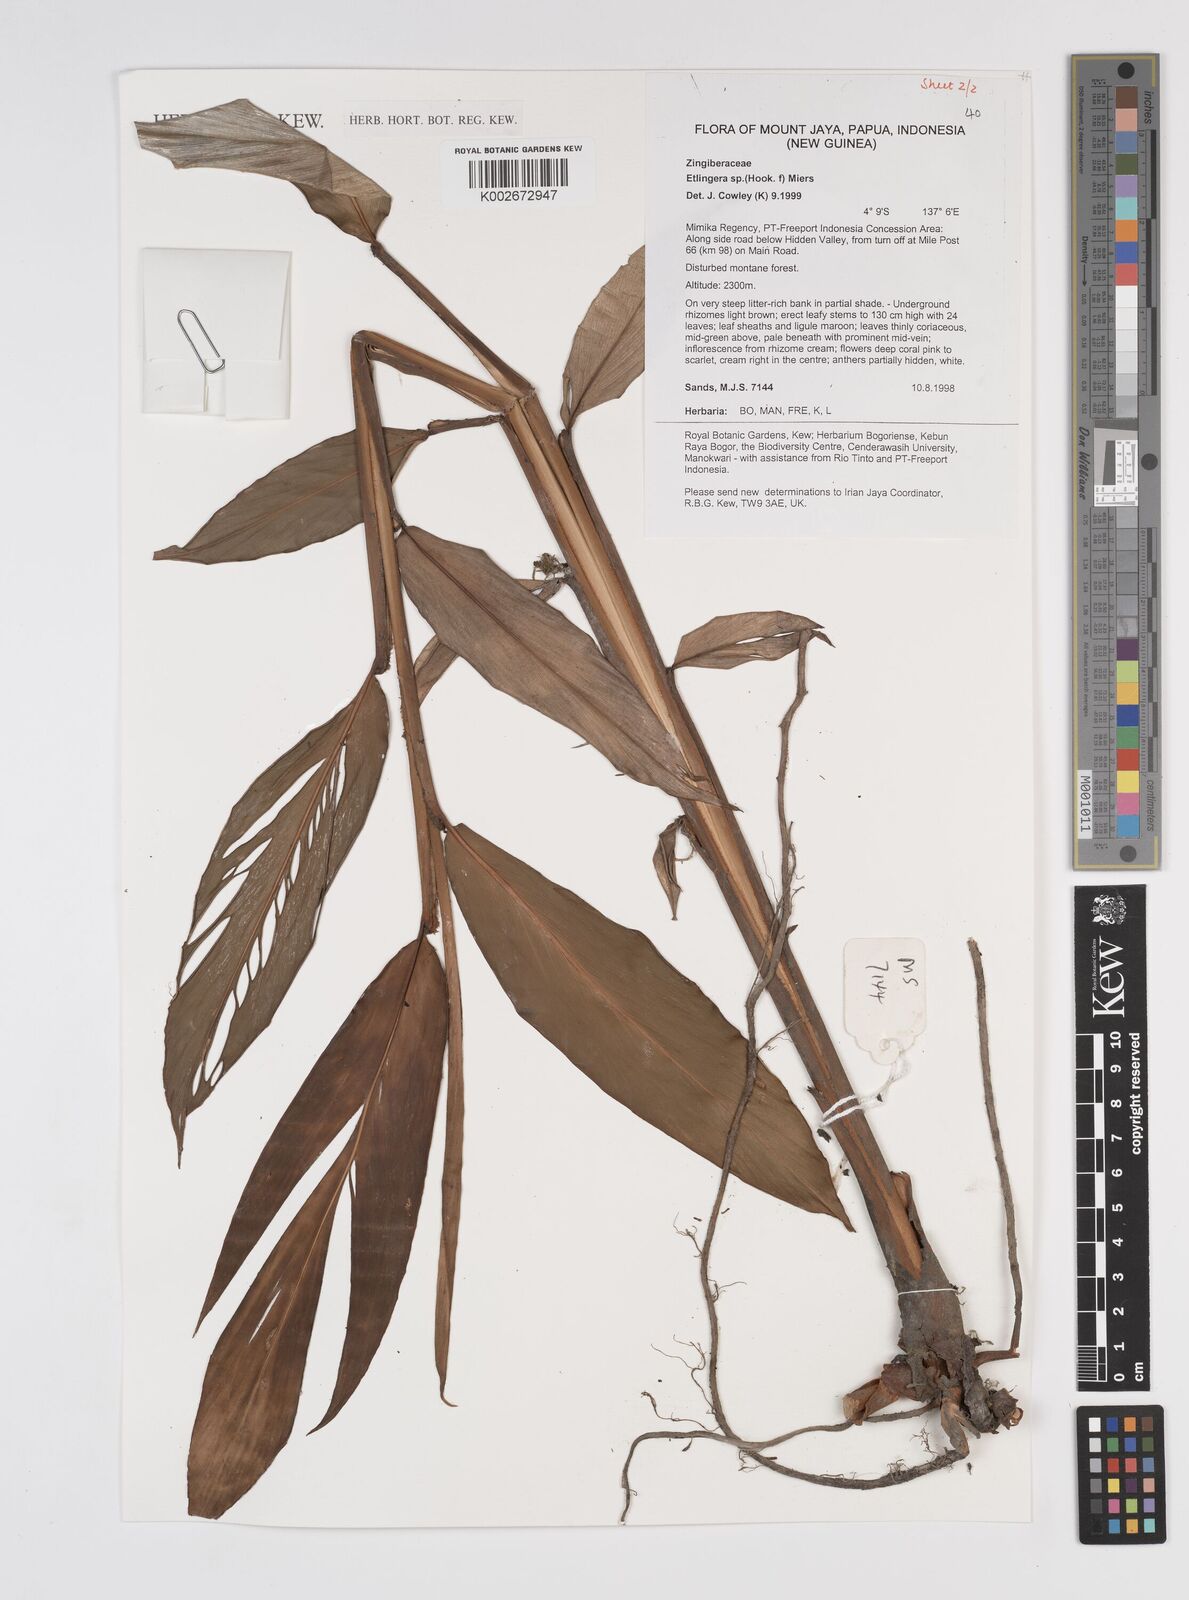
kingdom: Plantae
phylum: Tracheophyta
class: Liliopsida
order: Zingiberales
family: Zingiberaceae
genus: Etlingera
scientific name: Etlingera
